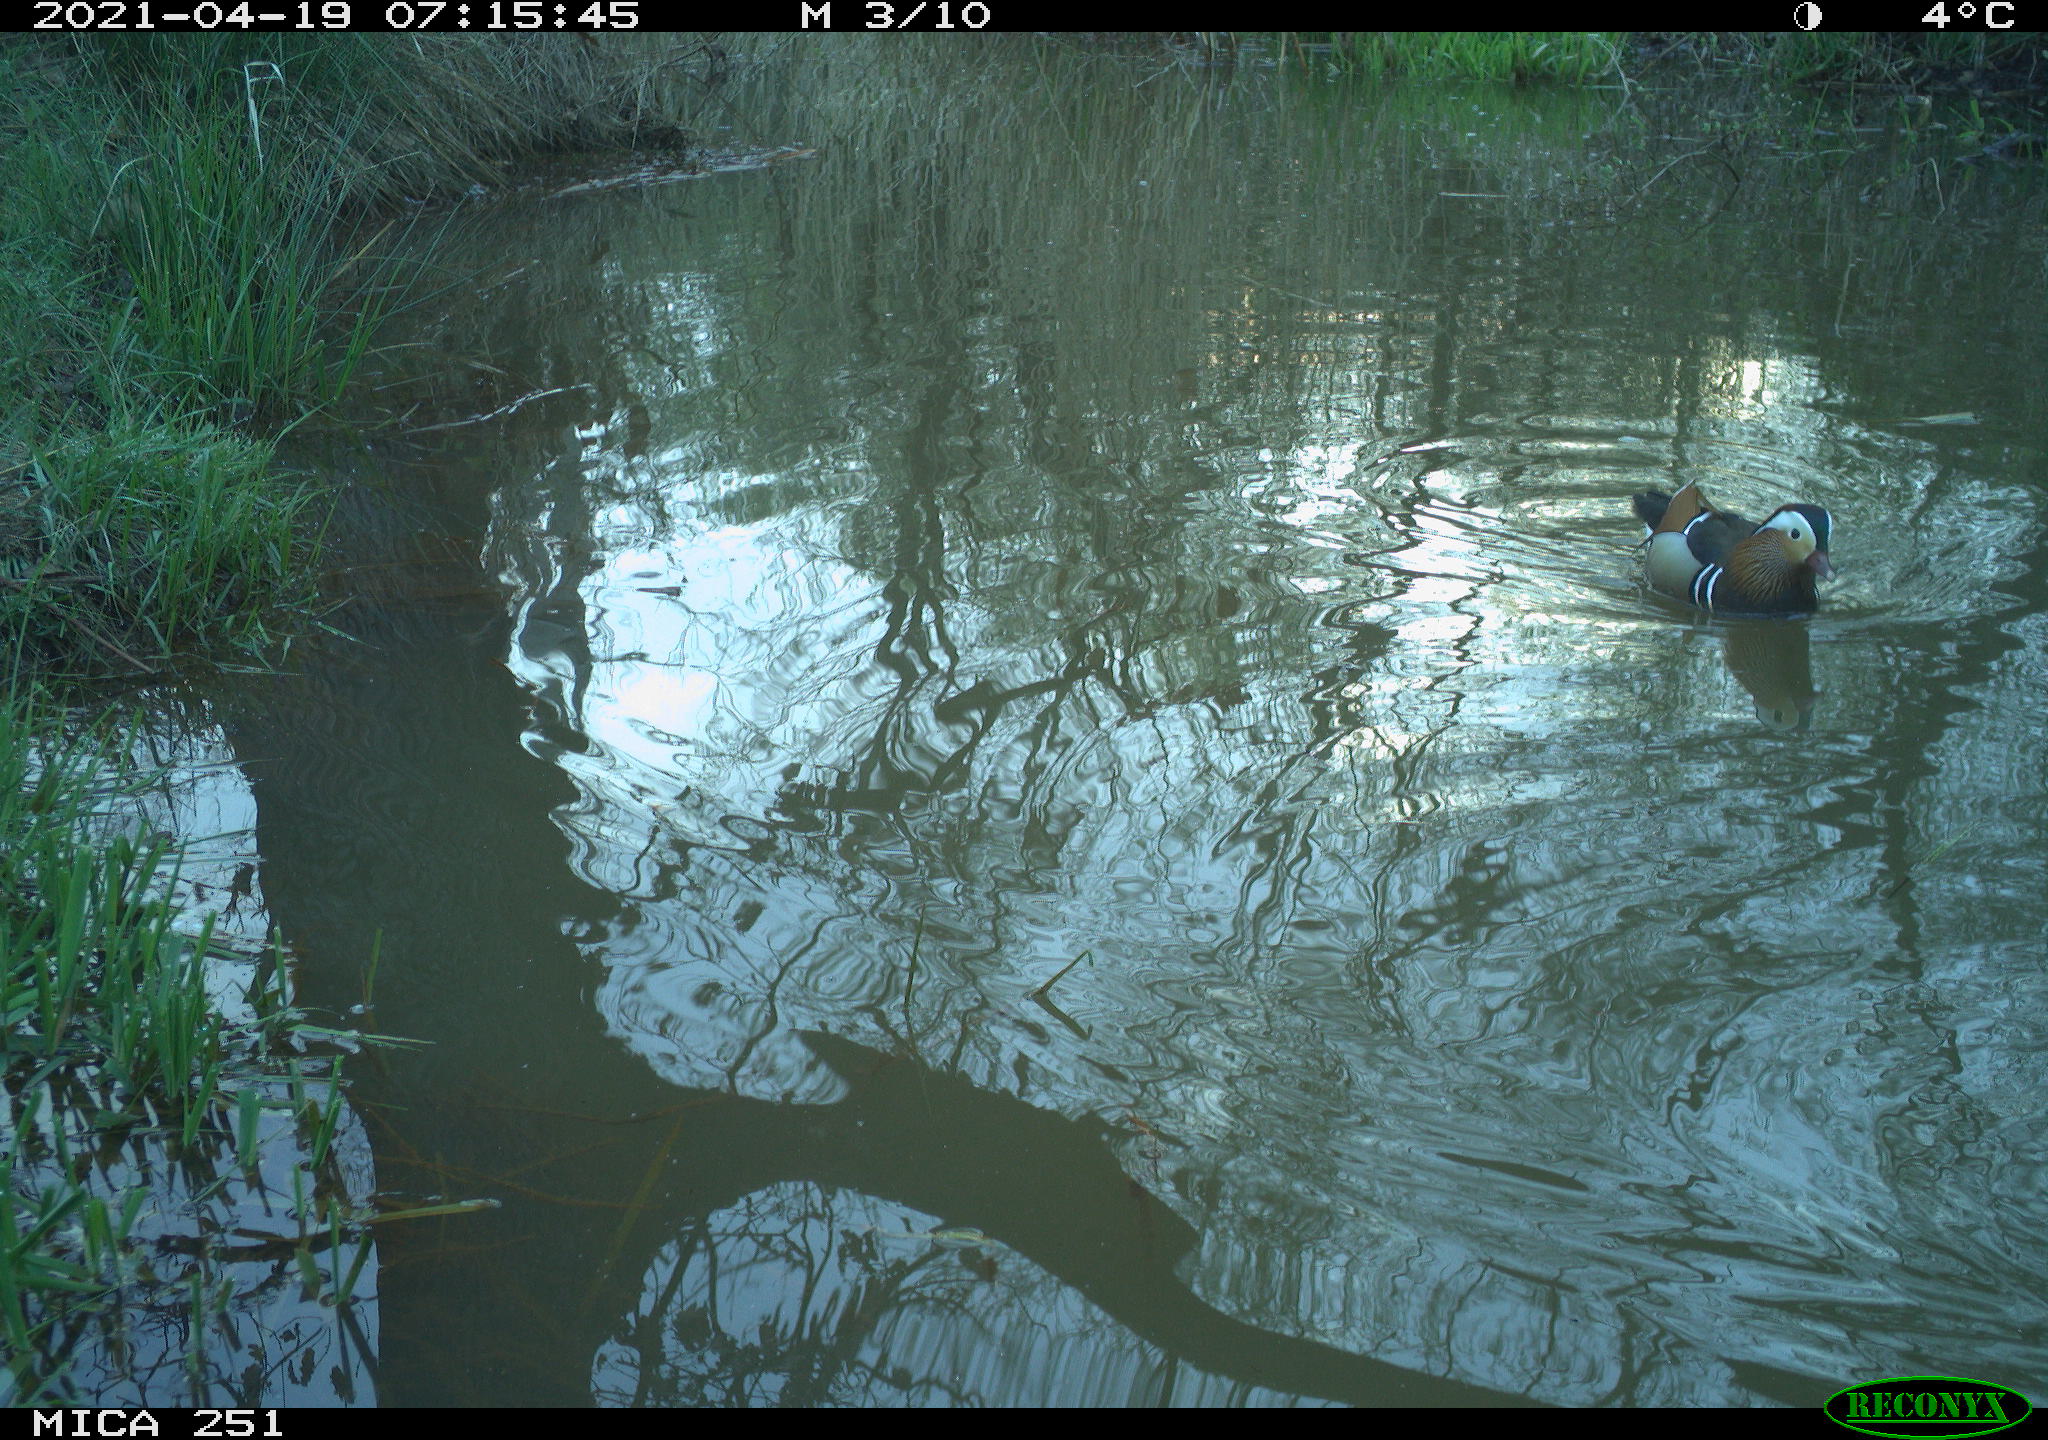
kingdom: Animalia
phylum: Chordata
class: Aves
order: Gruiformes
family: Rallidae
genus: Gallinula
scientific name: Gallinula chloropus
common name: Common moorhen
